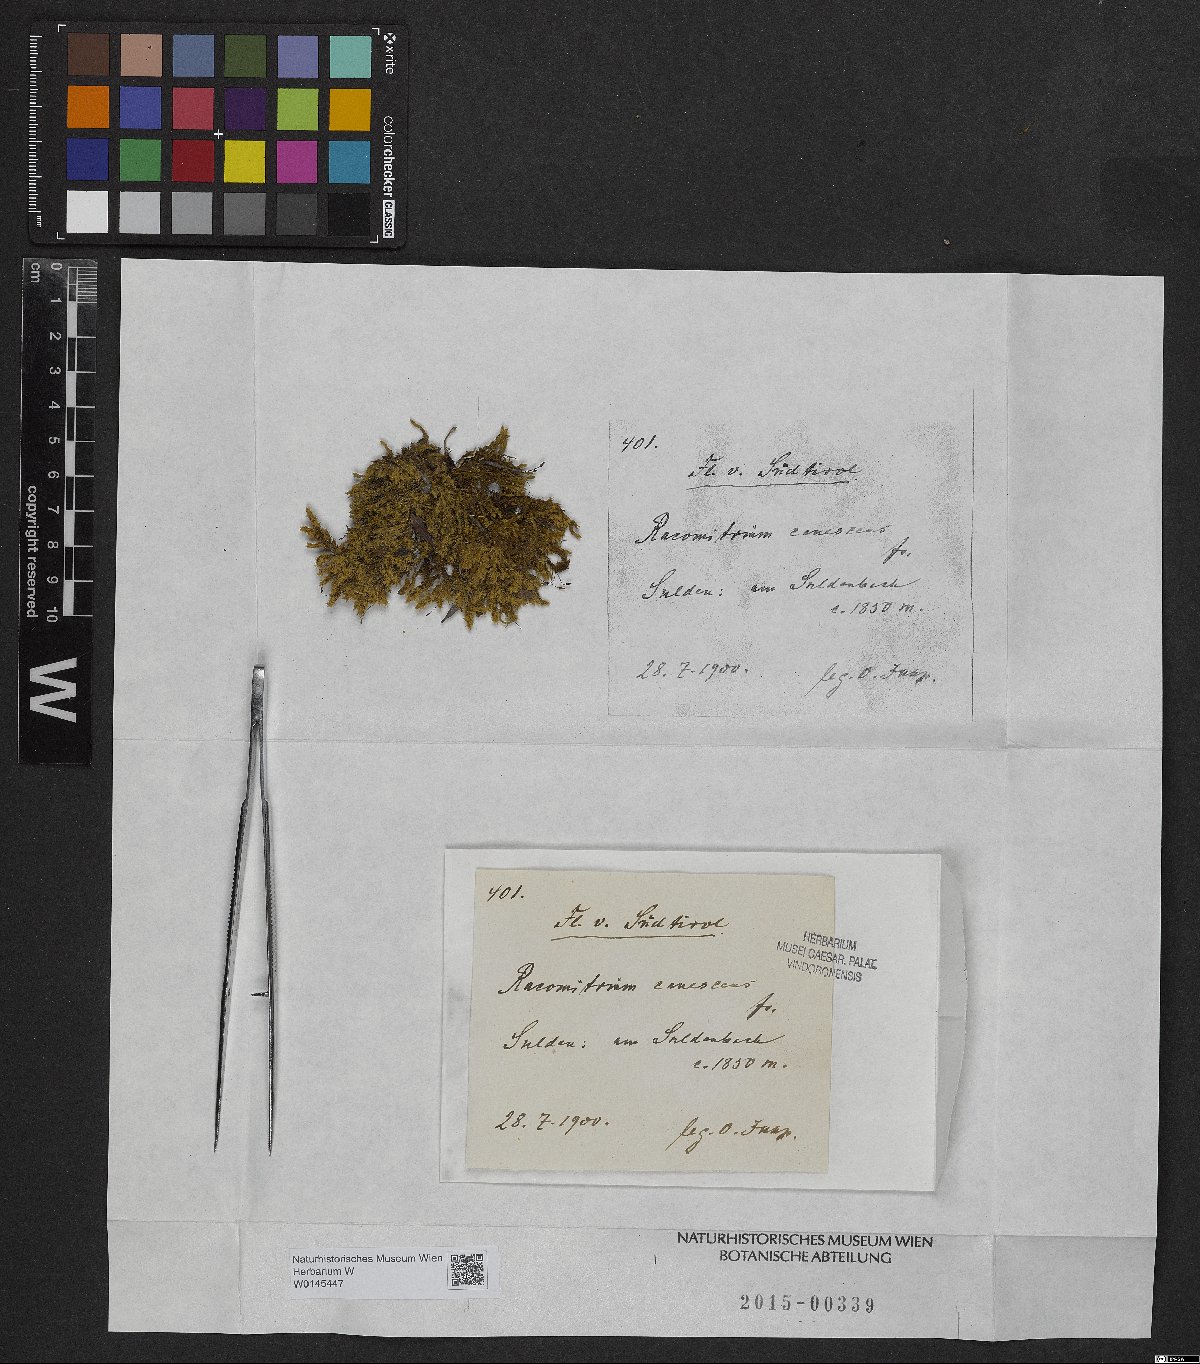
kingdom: Plantae
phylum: Bryophyta
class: Bryopsida
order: Grimmiales
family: Grimmiaceae
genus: Niphotrichum
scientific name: Niphotrichum canescens
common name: Hoary fringe-moss
